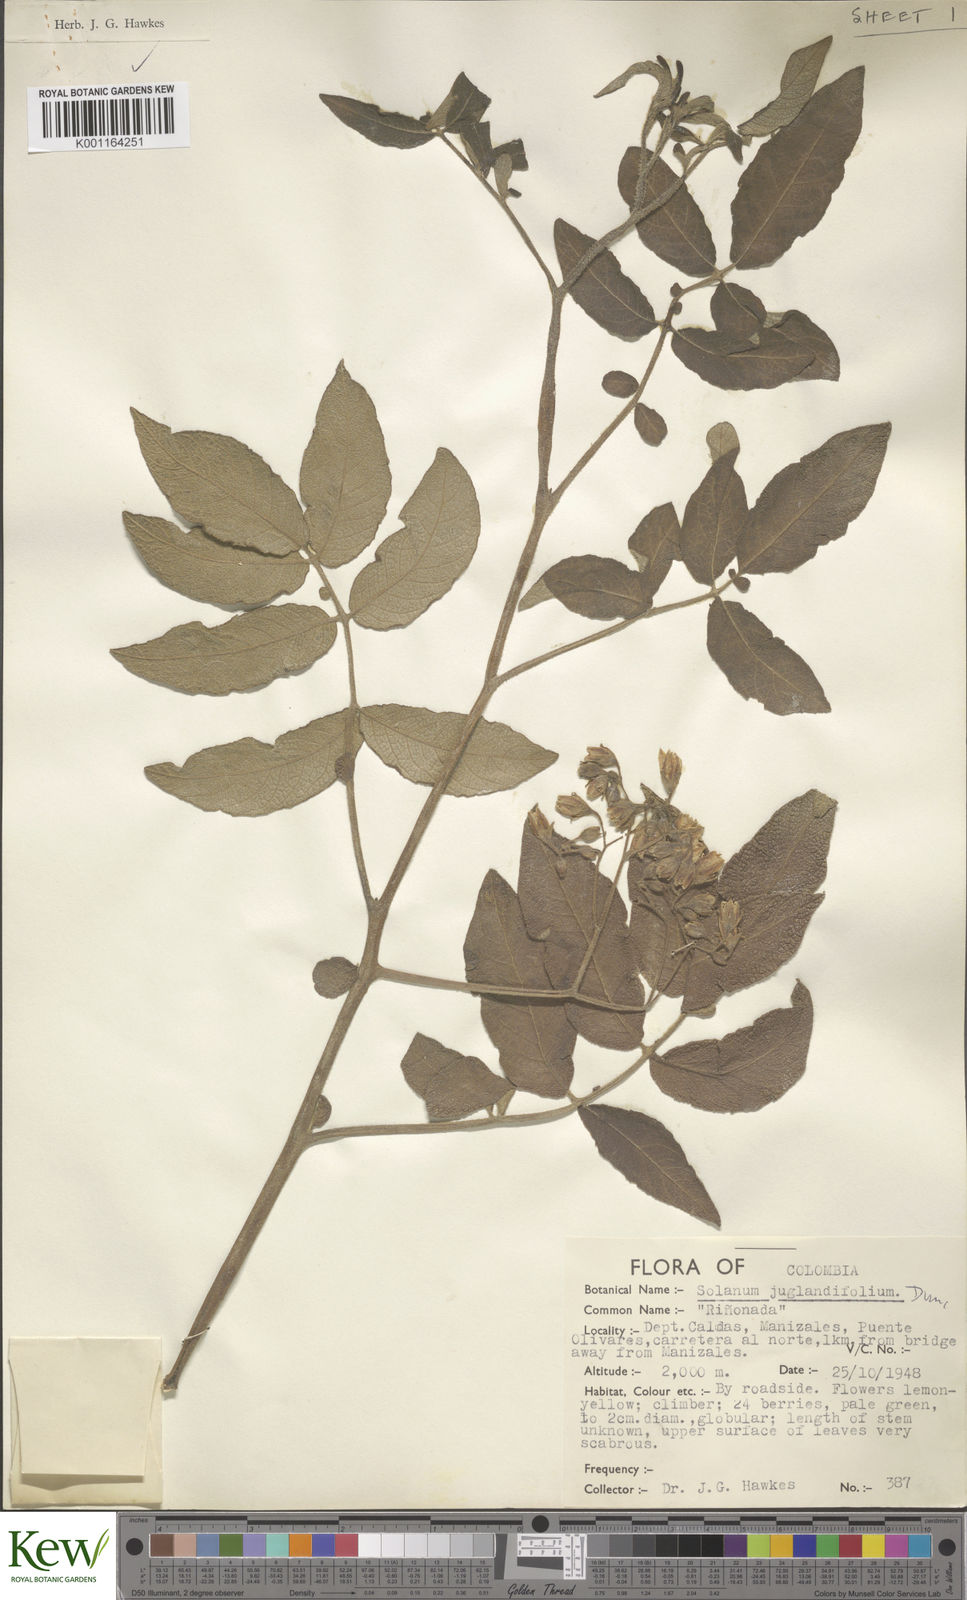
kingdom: Plantae
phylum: Tracheophyta
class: Magnoliopsida
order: Solanales
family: Solanaceae
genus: Solanum
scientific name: Solanum juglandifolium
